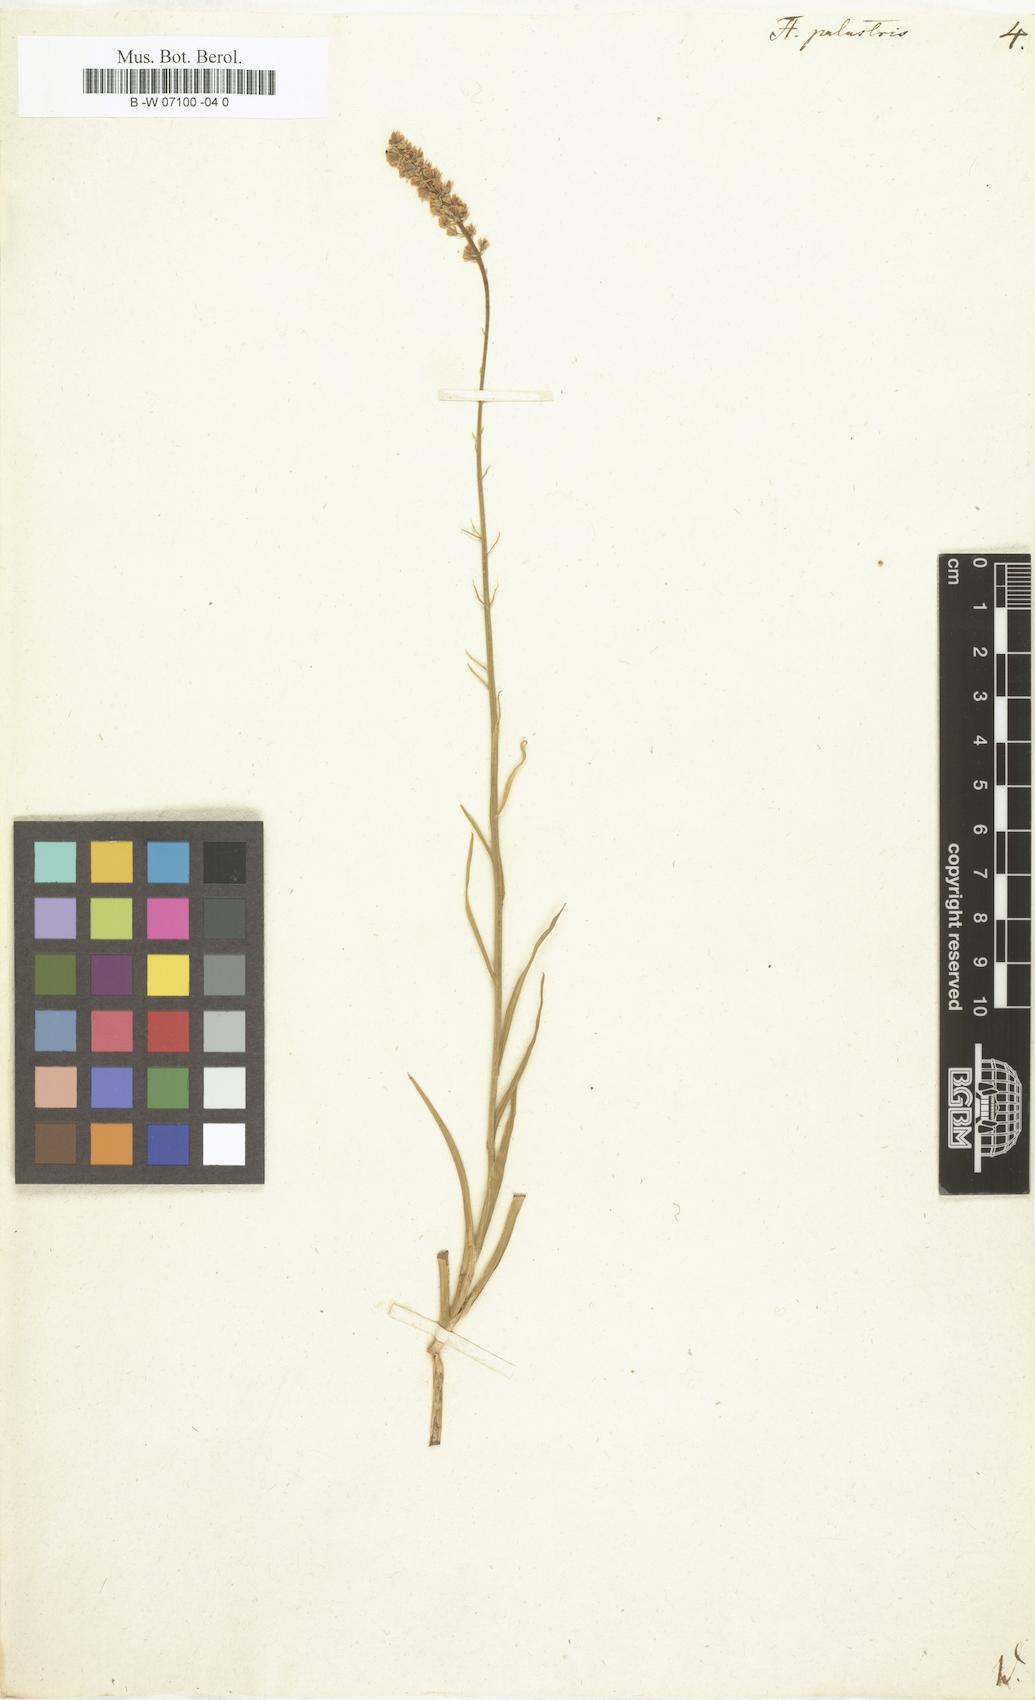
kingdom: Plantae
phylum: Tracheophyta
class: Liliopsida
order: Liliales
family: Melanthiaceae
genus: Tofieldia
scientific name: Tofieldia palustris
